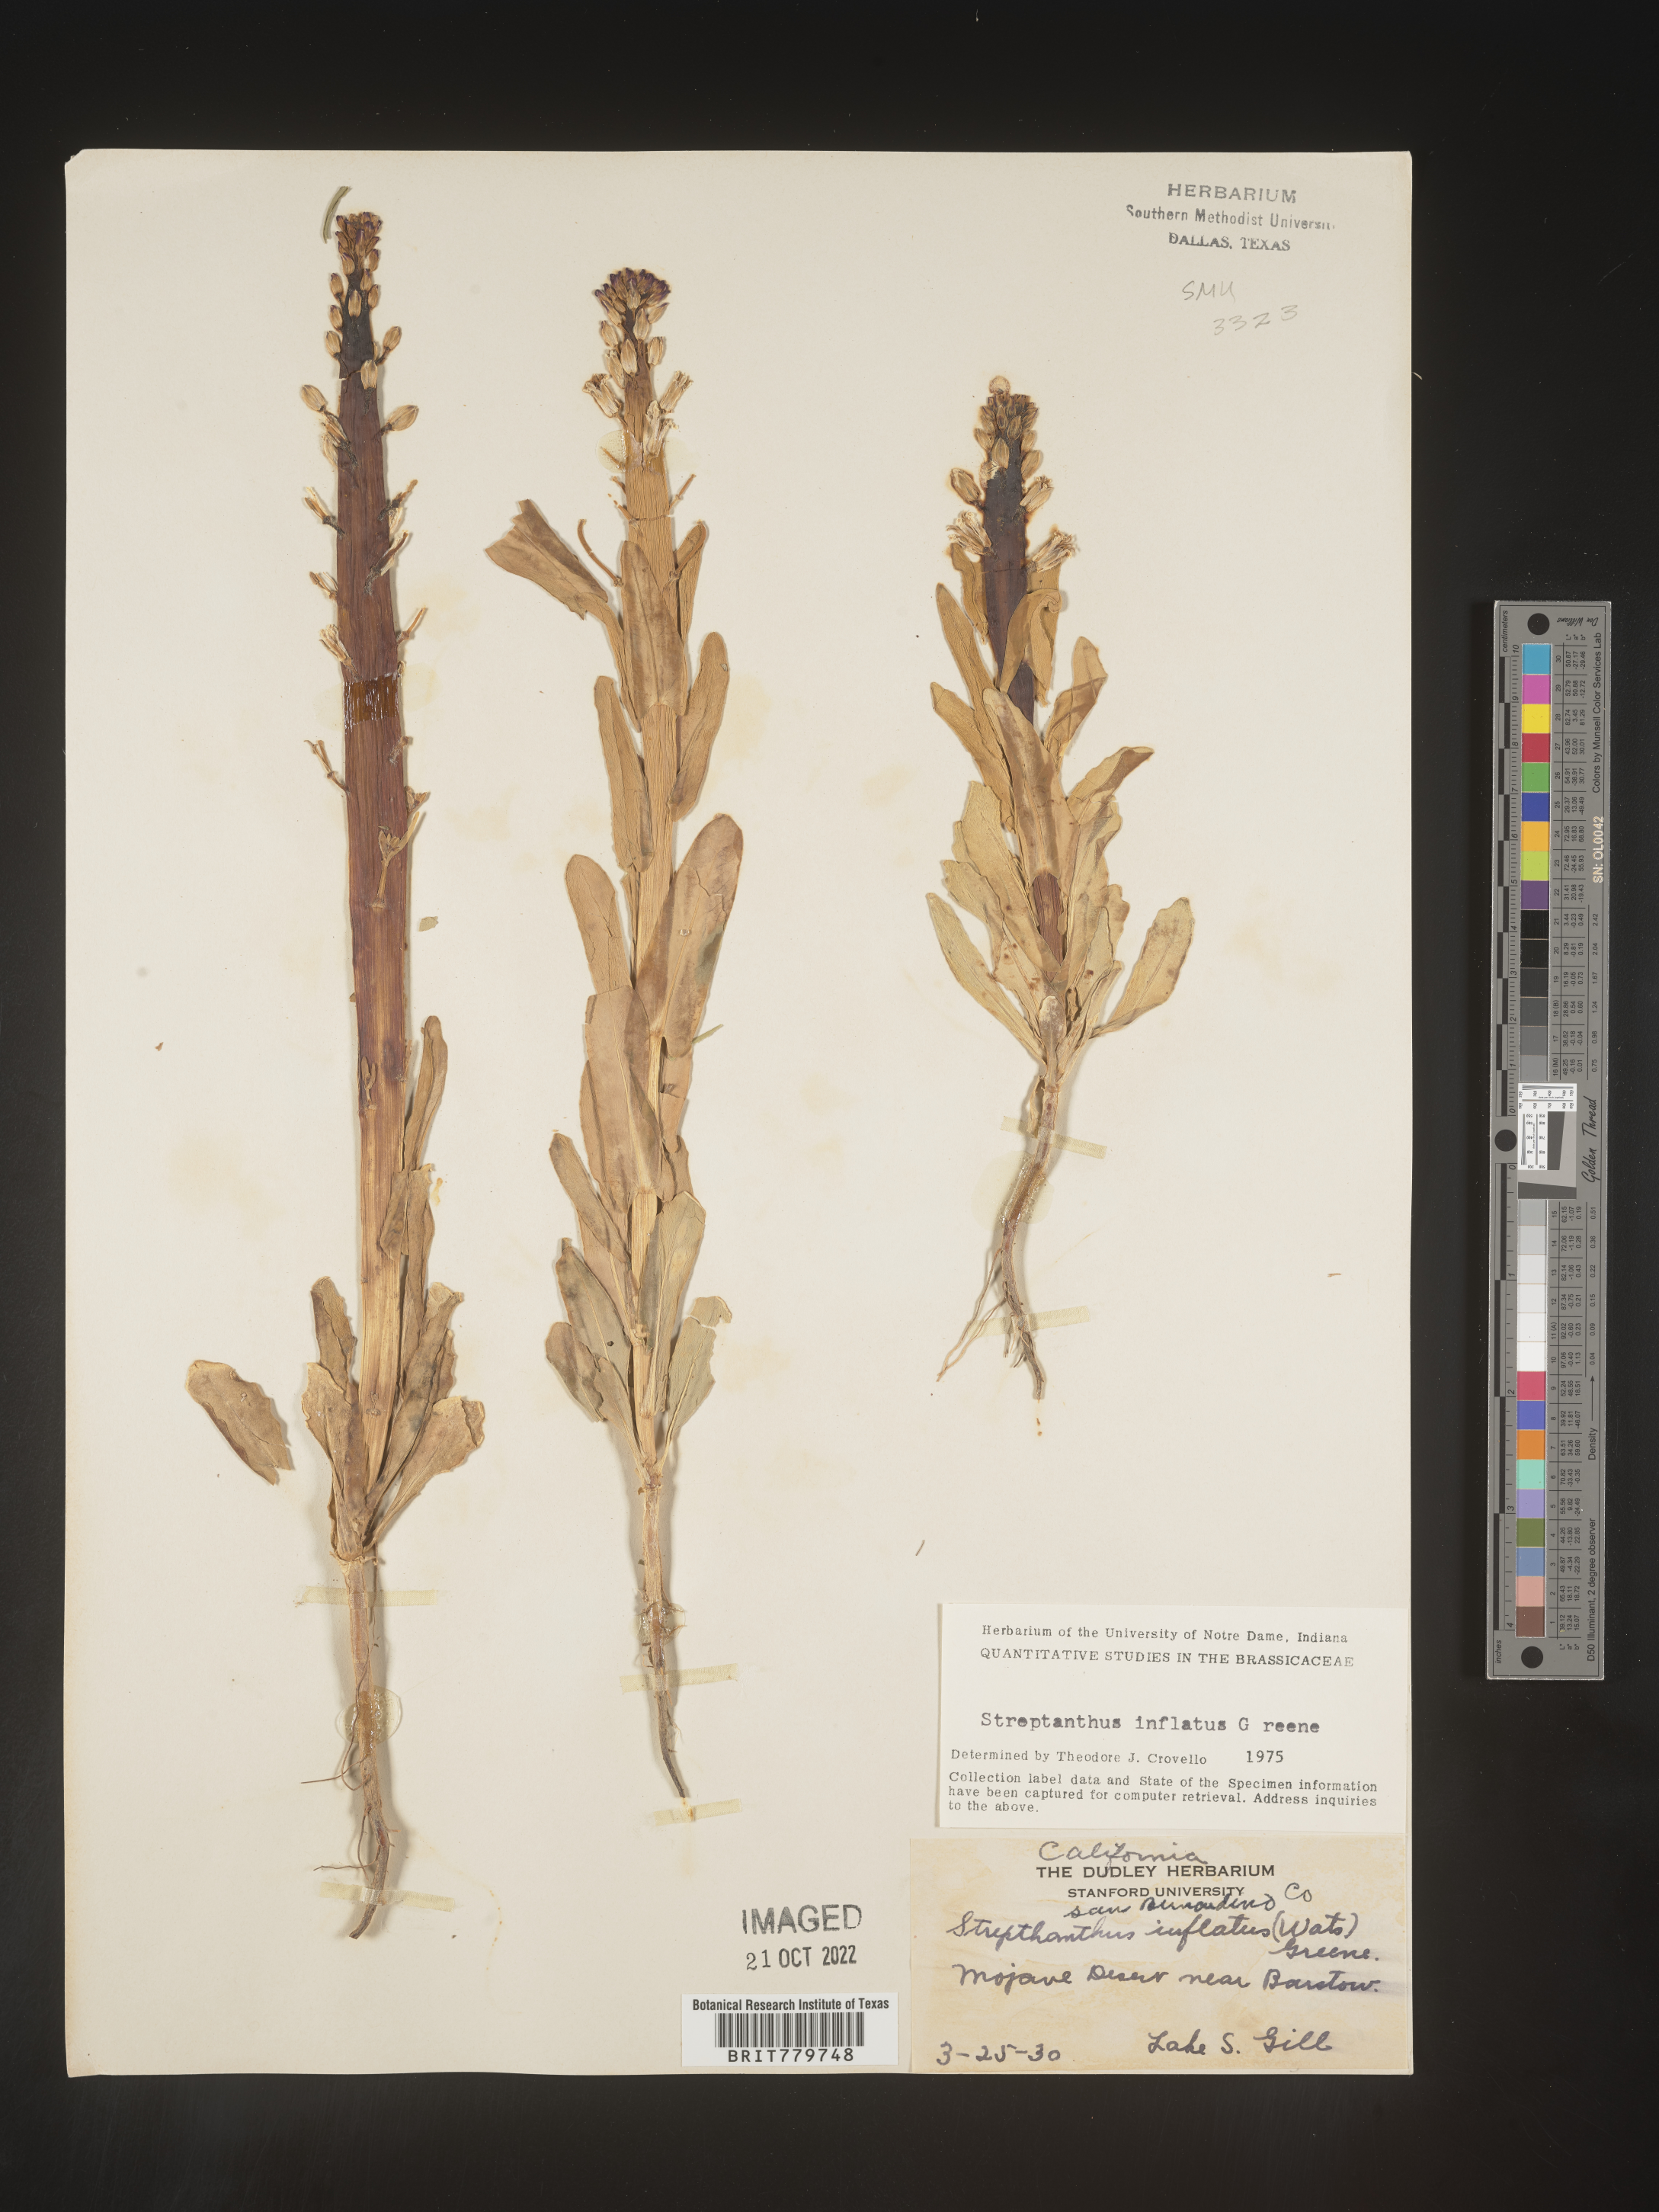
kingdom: Plantae
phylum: Tracheophyta
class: Magnoliopsida
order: Brassicales
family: Brassicaceae
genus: Streptanthus
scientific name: Streptanthus
